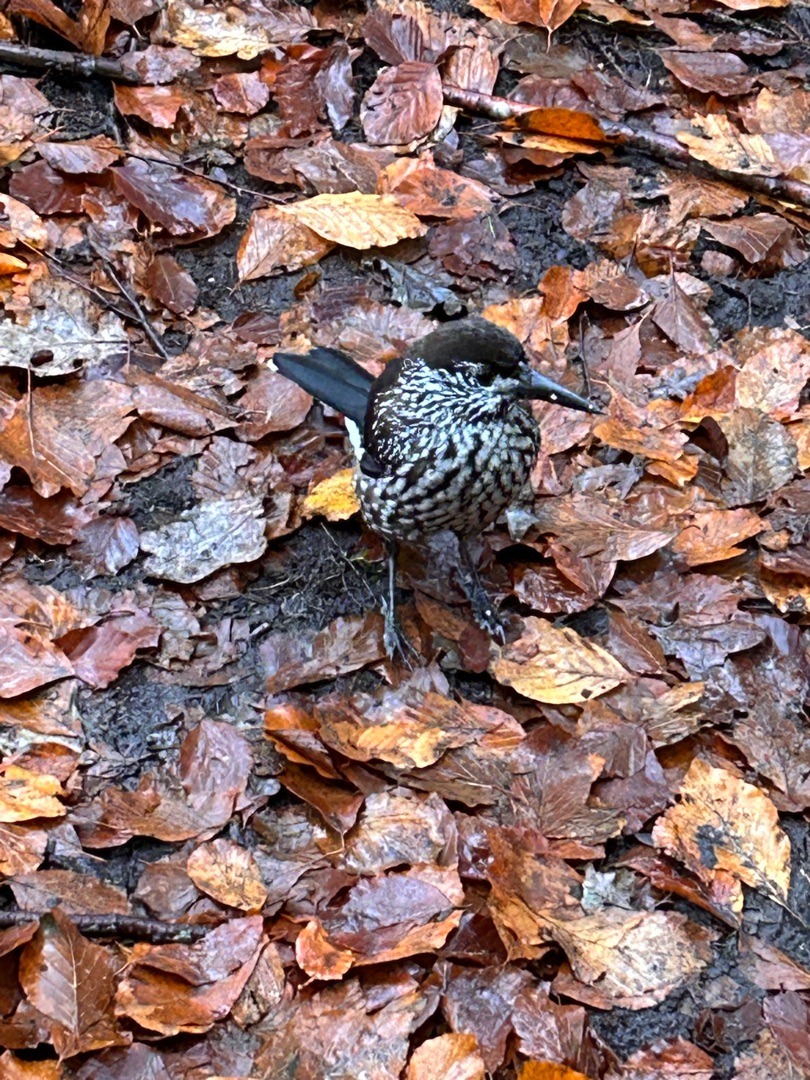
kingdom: Animalia
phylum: Chordata
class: Aves
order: Passeriformes
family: Corvidae
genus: Nucifraga
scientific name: Nucifraga caryocatactes
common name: Nøddekrige
